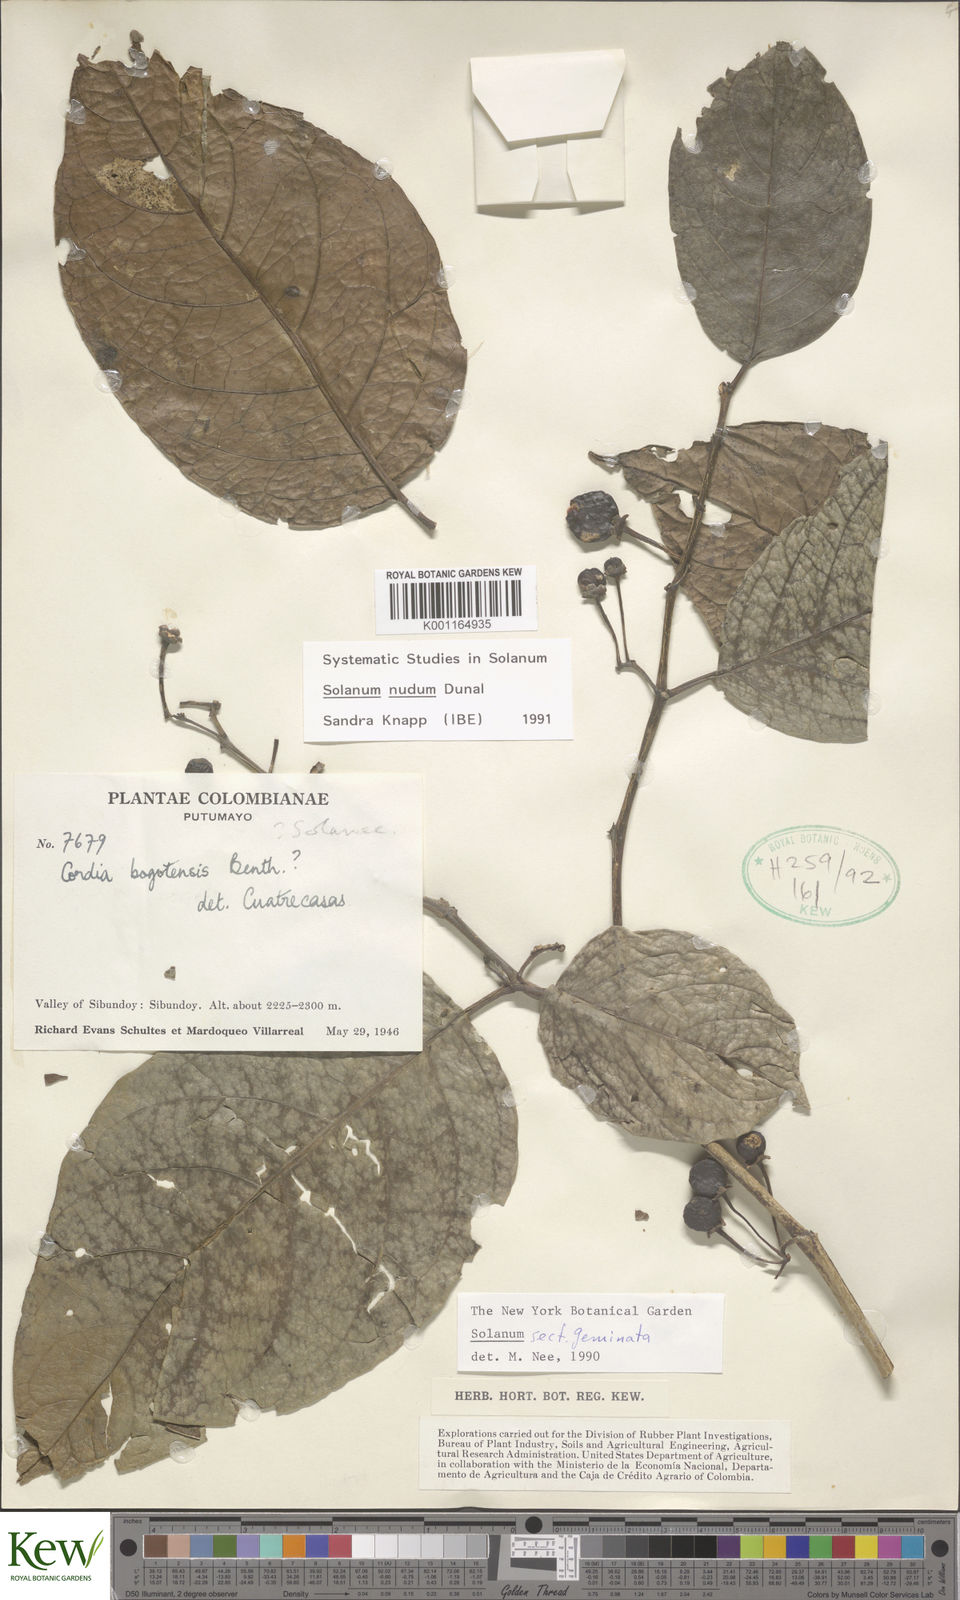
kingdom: Plantae
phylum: Tracheophyta
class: Magnoliopsida
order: Solanales
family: Solanaceae
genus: Solanum
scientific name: Solanum nudum
